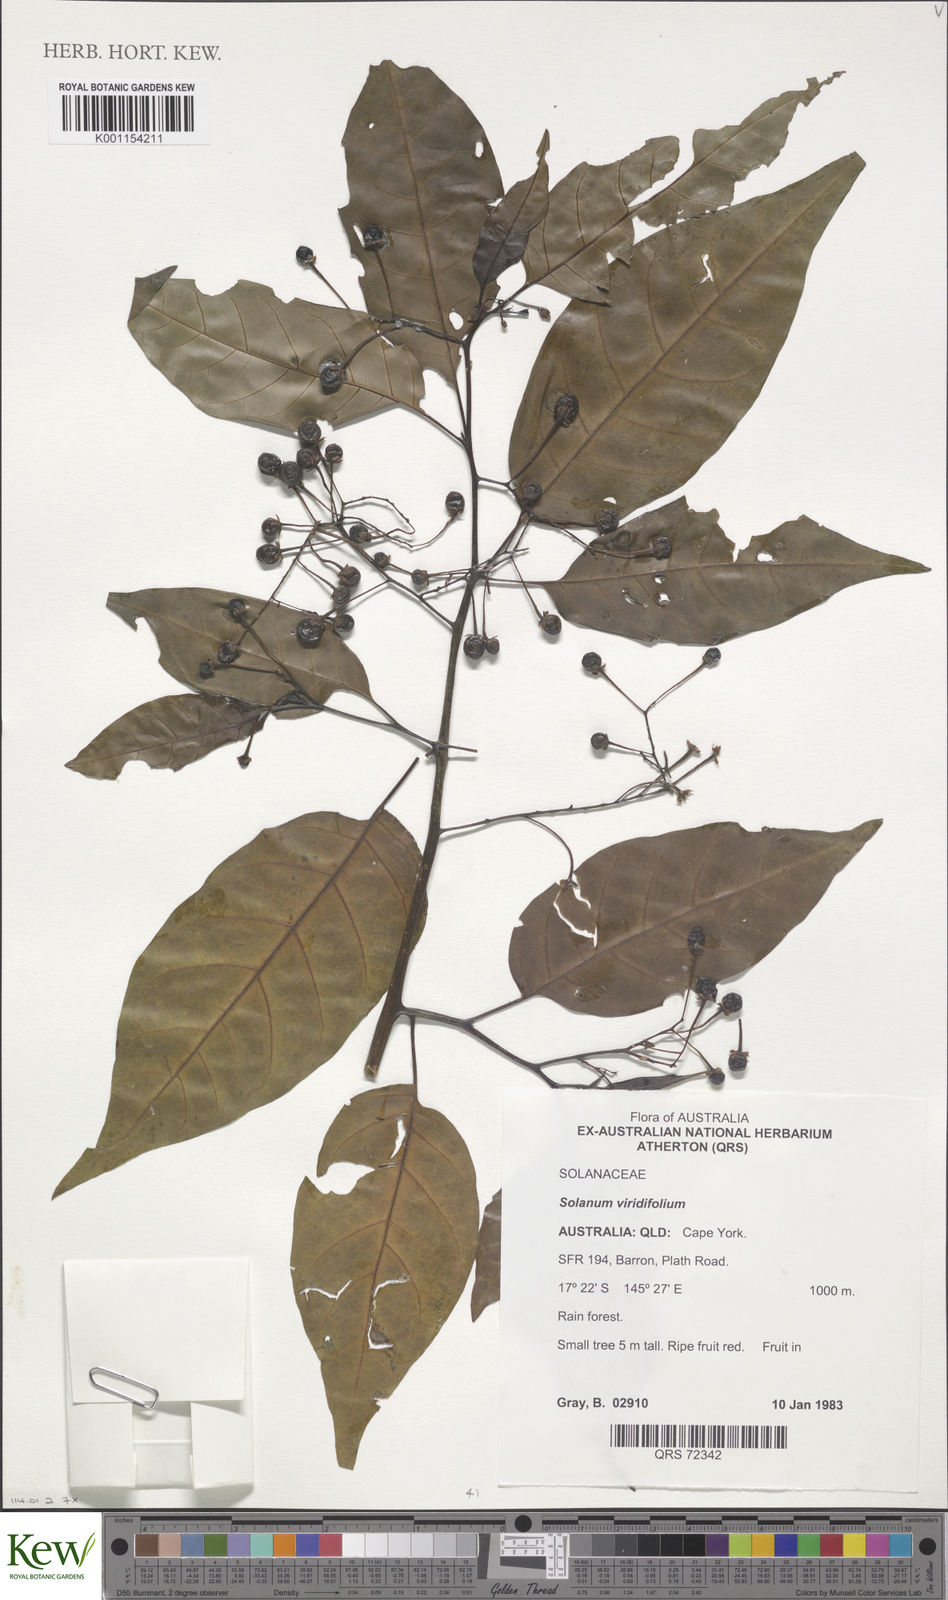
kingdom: Plantae
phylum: Tracheophyta
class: Magnoliopsida
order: Solanales
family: Solanaceae
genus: Solanum
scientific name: Solanum viridifolium
